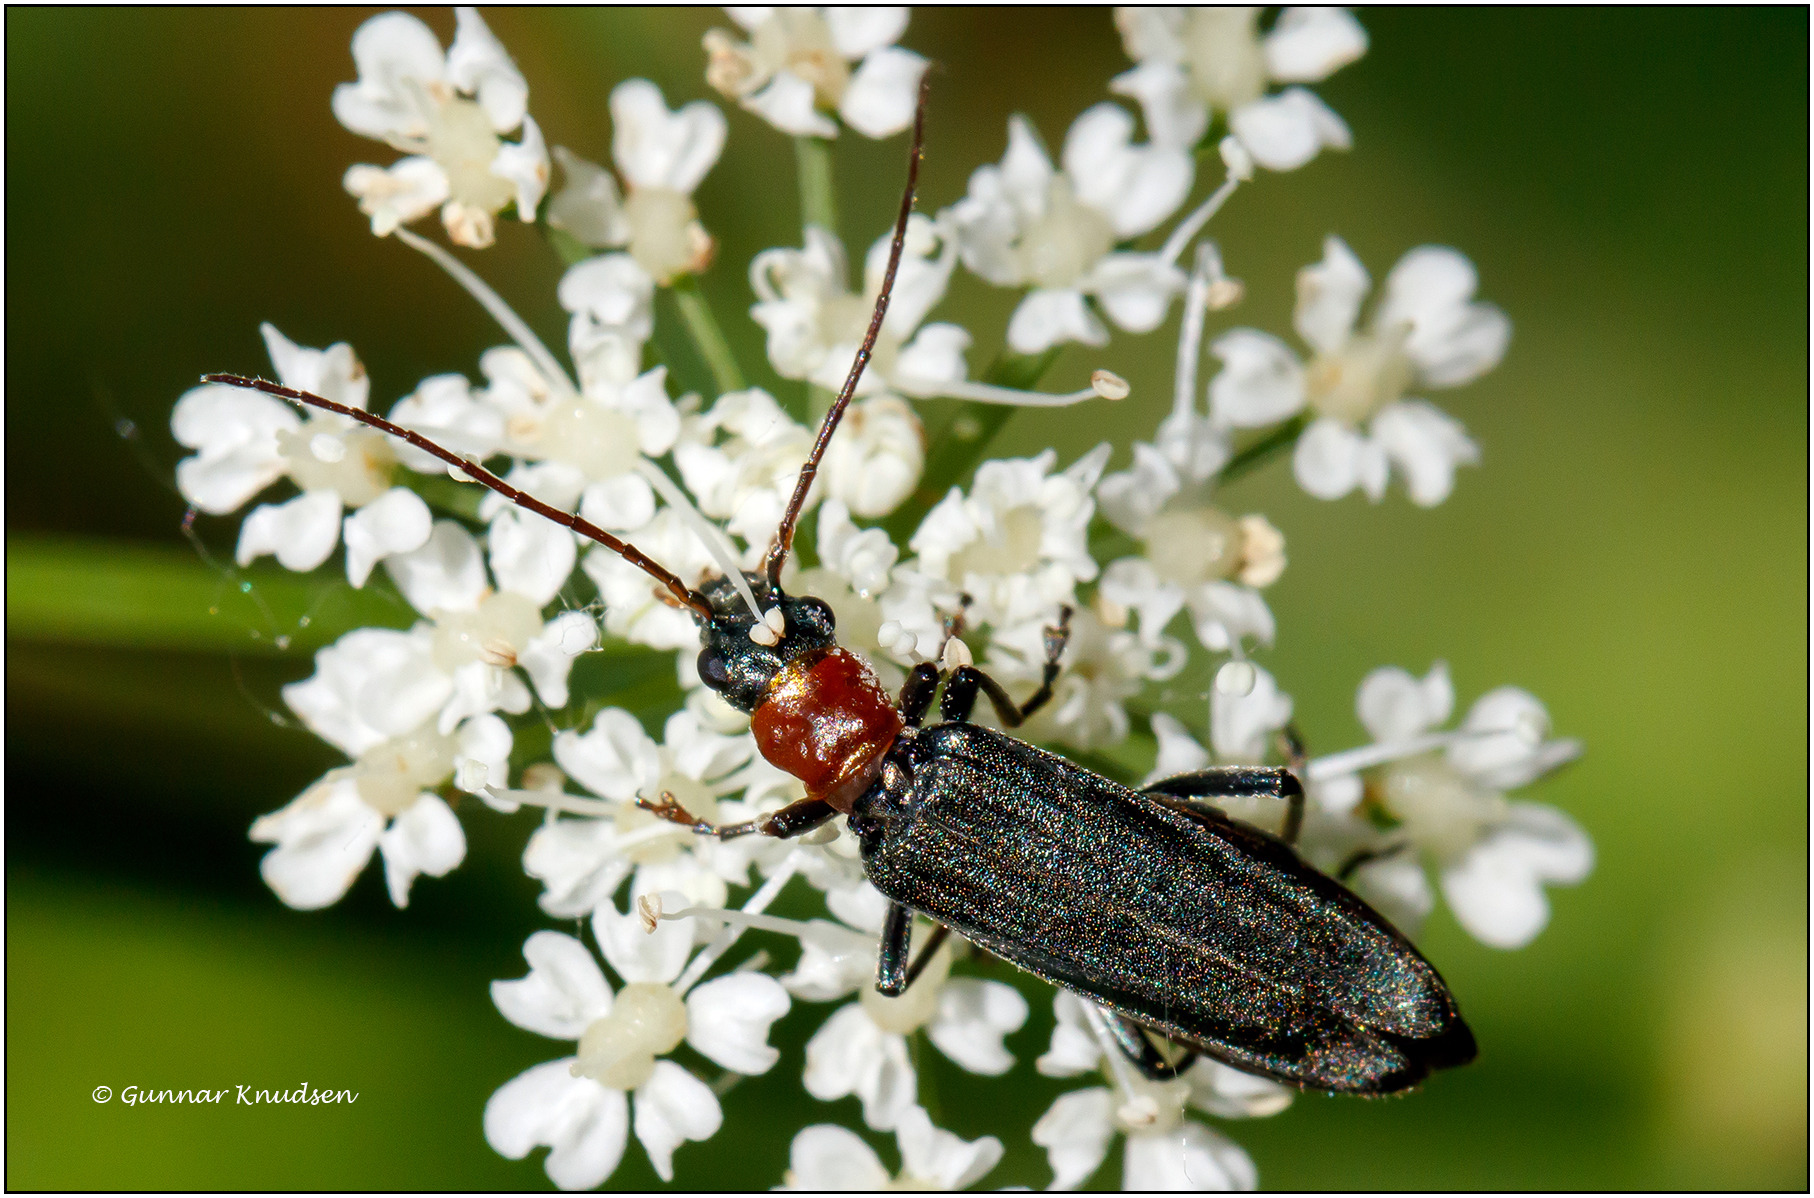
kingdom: Animalia
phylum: Arthropoda
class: Insecta
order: Coleoptera
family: Oedemeridae
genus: Oedemera
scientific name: Oedemera croceicollis
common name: Orangebrystet solbille
